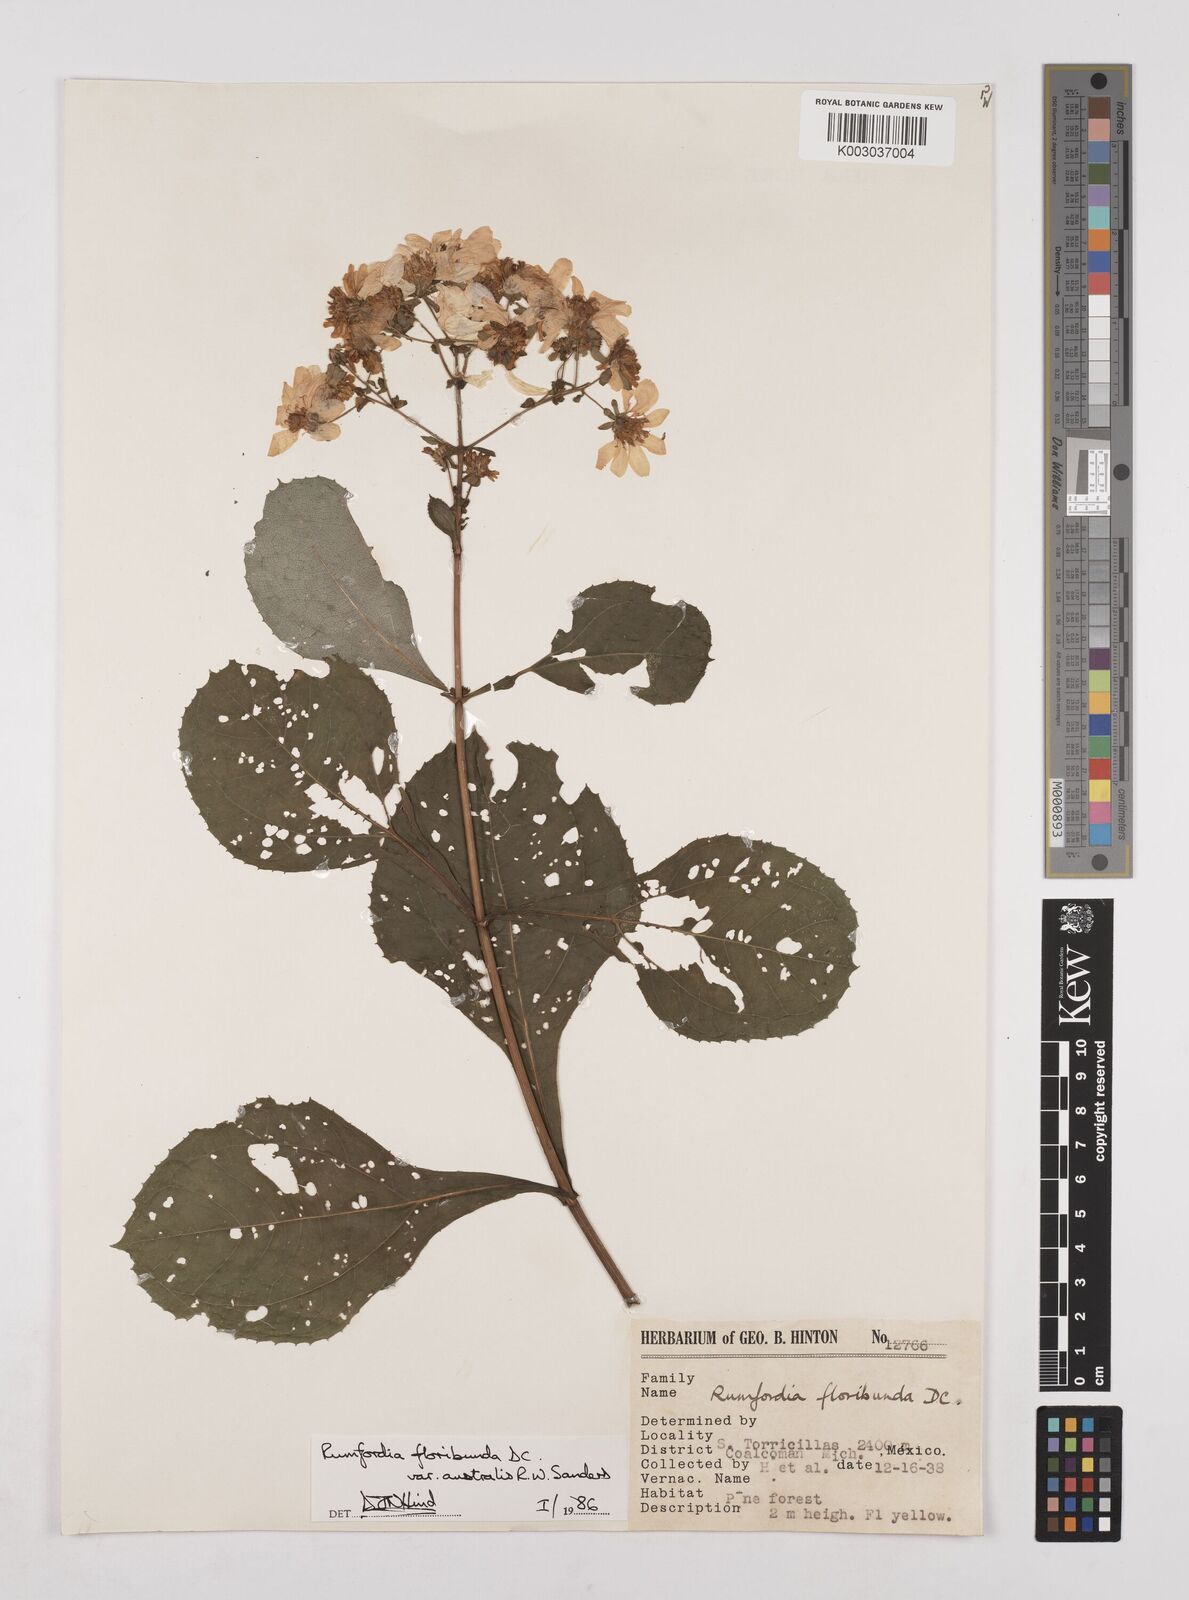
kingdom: Plantae
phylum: Tracheophyta
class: Magnoliopsida
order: Asterales
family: Asteraceae
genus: Rumfordia
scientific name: Rumfordia floribunda
